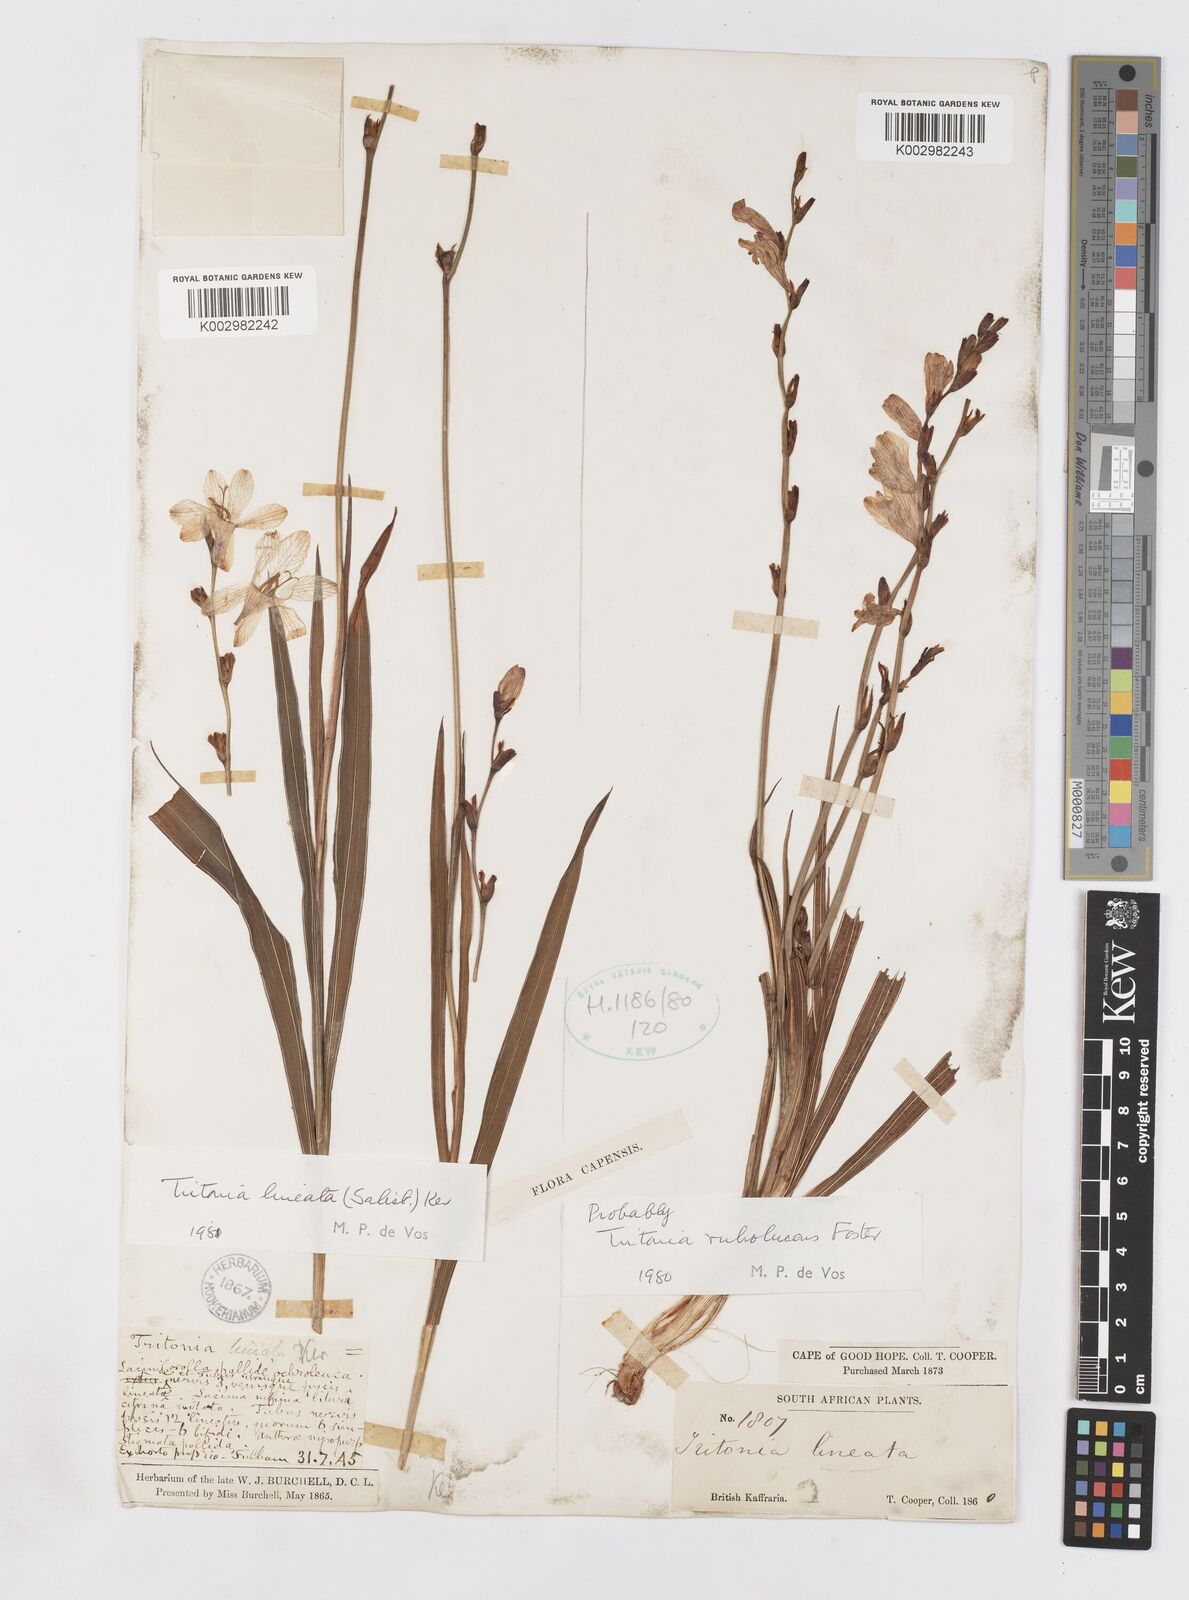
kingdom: Plantae
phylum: Tracheophyta
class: Liliopsida
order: Asparagales
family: Iridaceae
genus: Tritonia
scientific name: Tritonia gladiolaris
